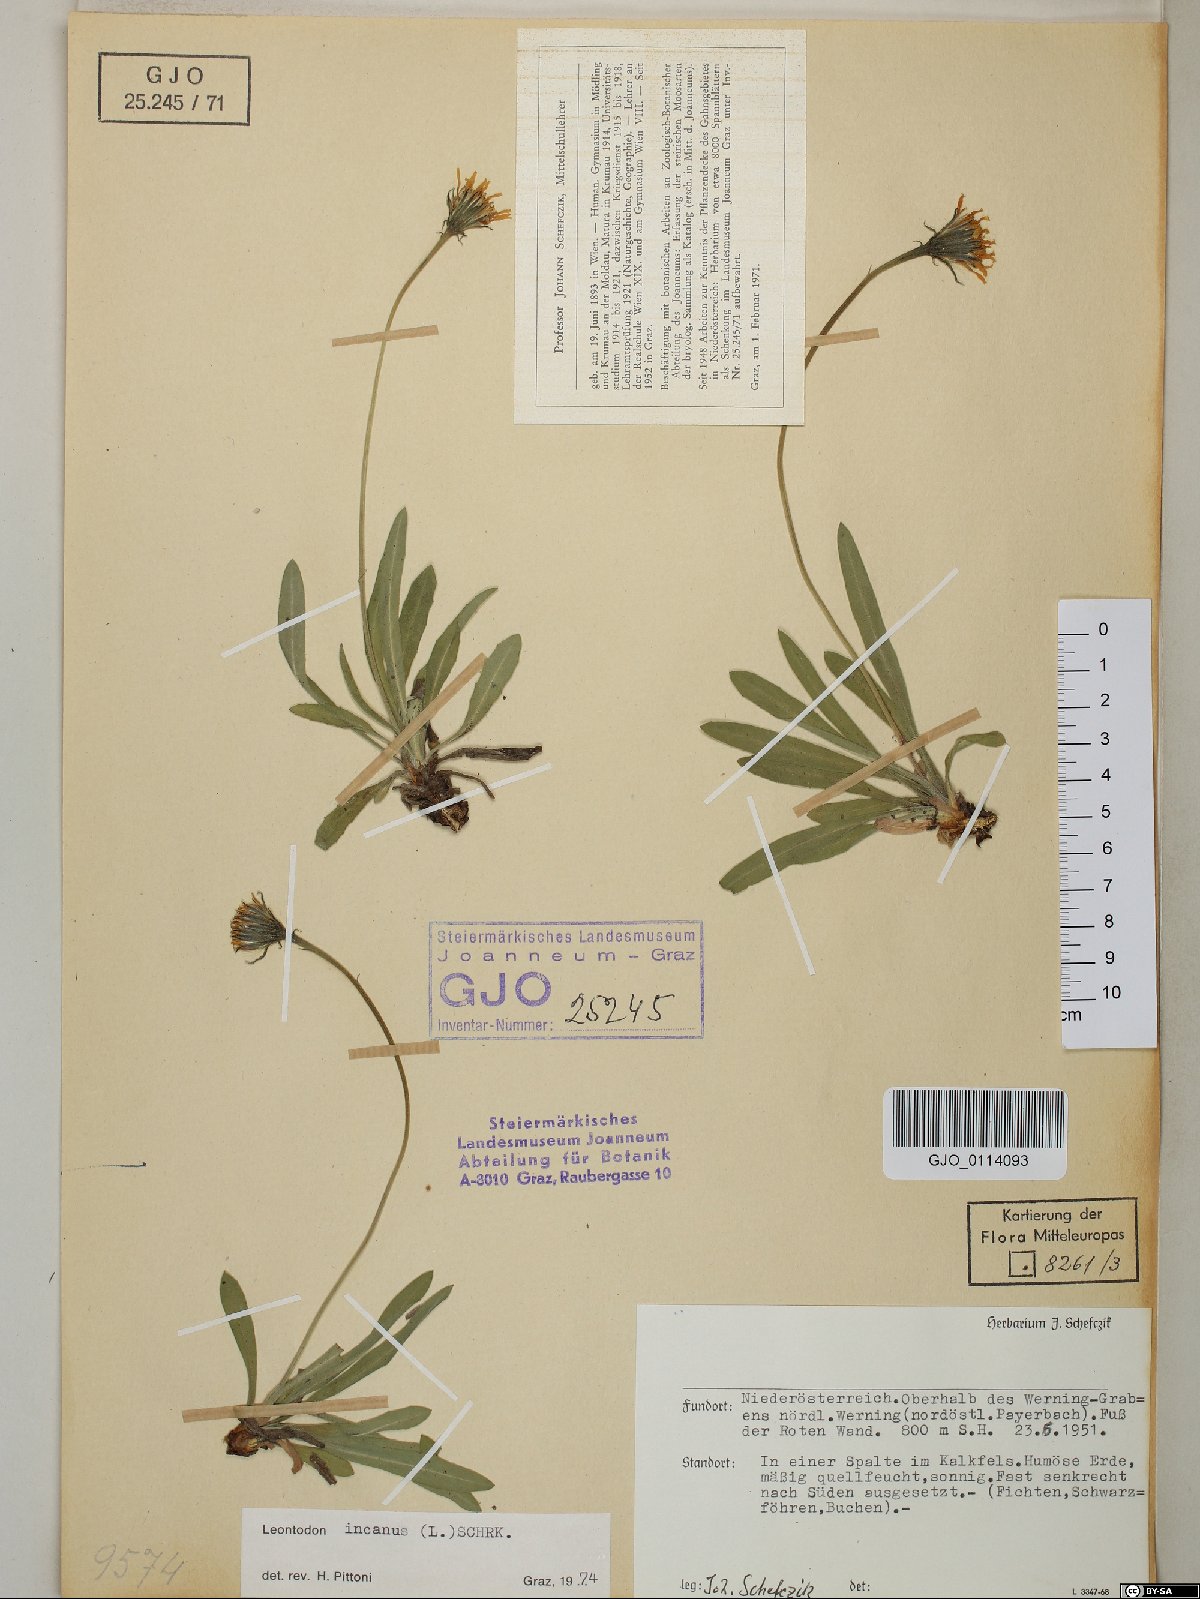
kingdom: Plantae
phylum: Tracheophyta
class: Magnoliopsida
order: Asterales
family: Asteraceae
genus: Leontodon
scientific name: Leontodon incanus
